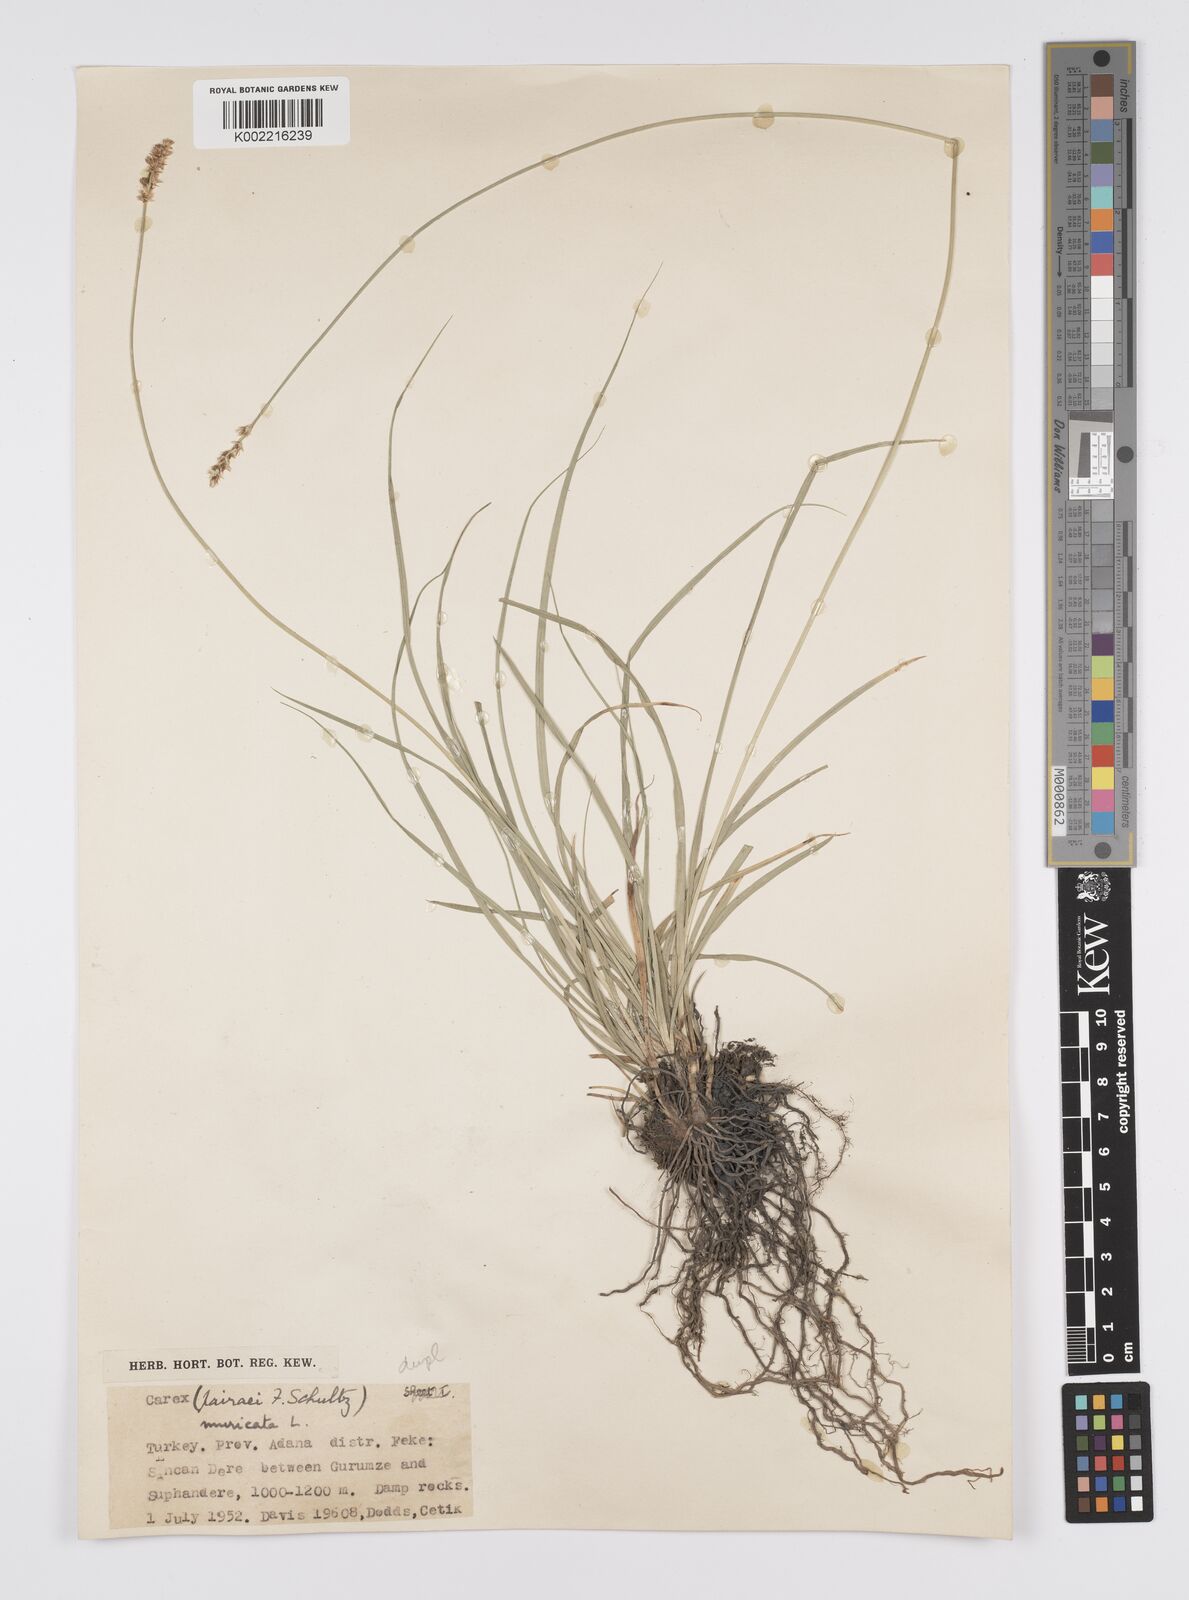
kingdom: Plantae
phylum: Tracheophyta
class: Liliopsida
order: Poales
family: Cyperaceae
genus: Carex
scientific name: Carex muricata
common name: Rough sedge
